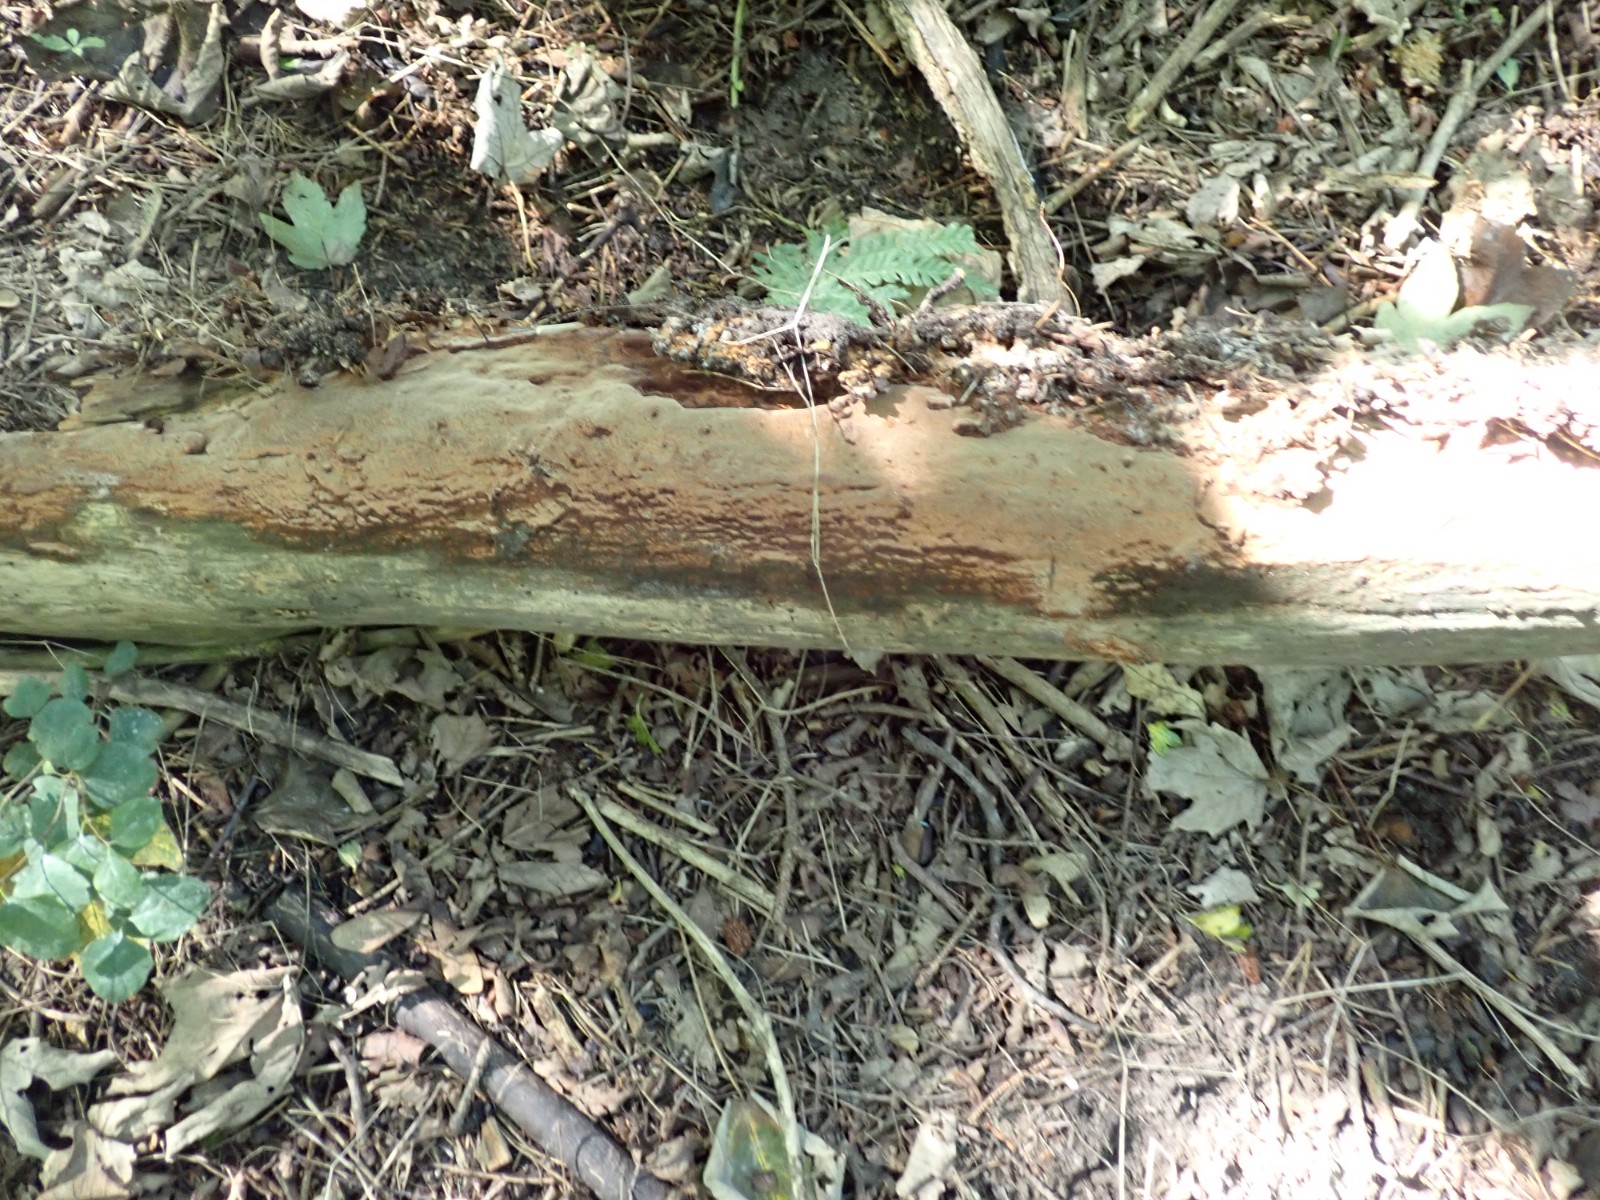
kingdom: Fungi
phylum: Basidiomycota
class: Agaricomycetes
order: Hymenochaetales
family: Hymenochaetaceae
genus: Fuscoporia
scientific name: Fuscoporia ferrea
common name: skorpe-ildporesvamp
